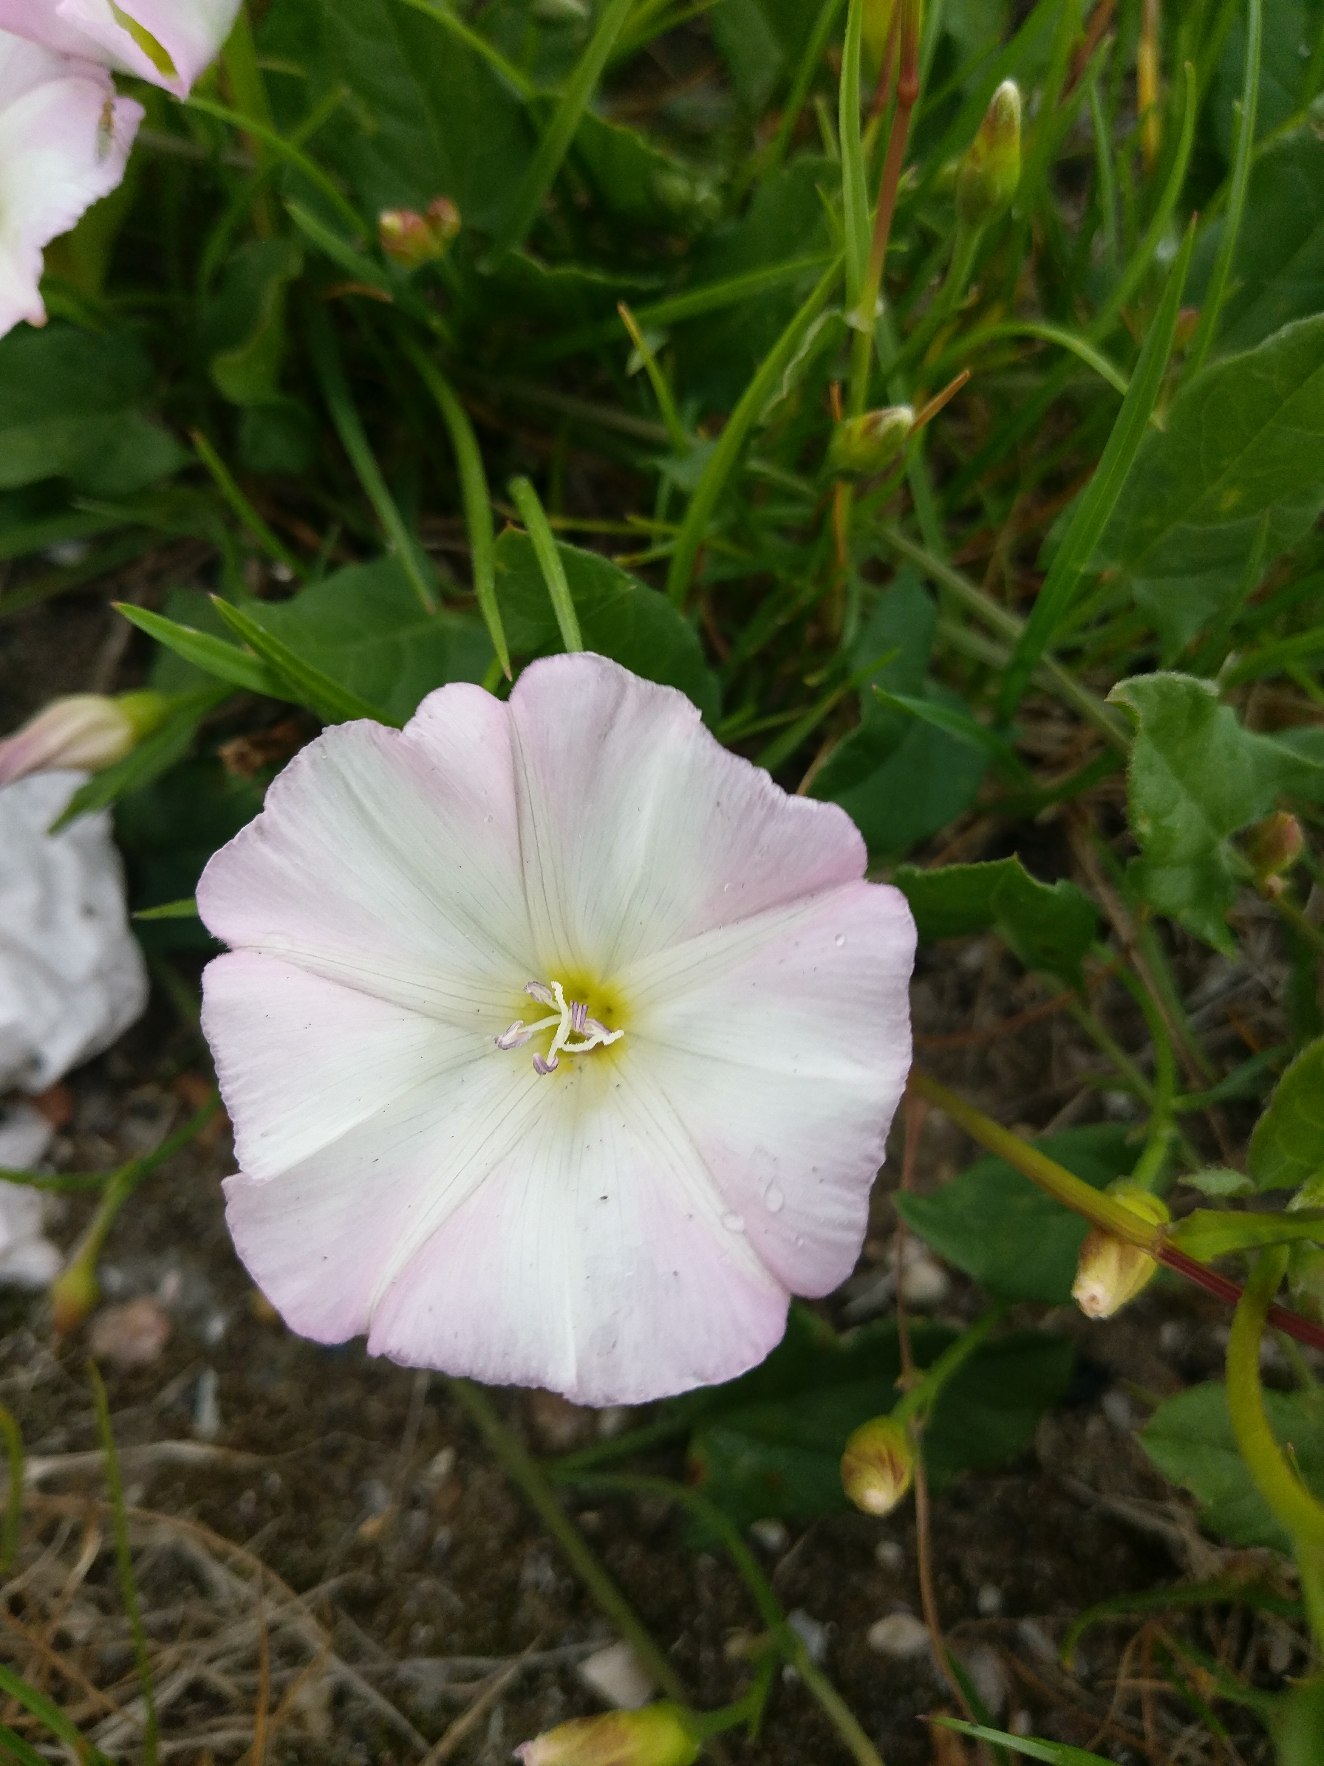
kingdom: Plantae
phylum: Tracheophyta
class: Magnoliopsida
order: Solanales
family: Convolvulaceae
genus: Convolvulus
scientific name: Convolvulus arvensis
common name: Ager-snerle
